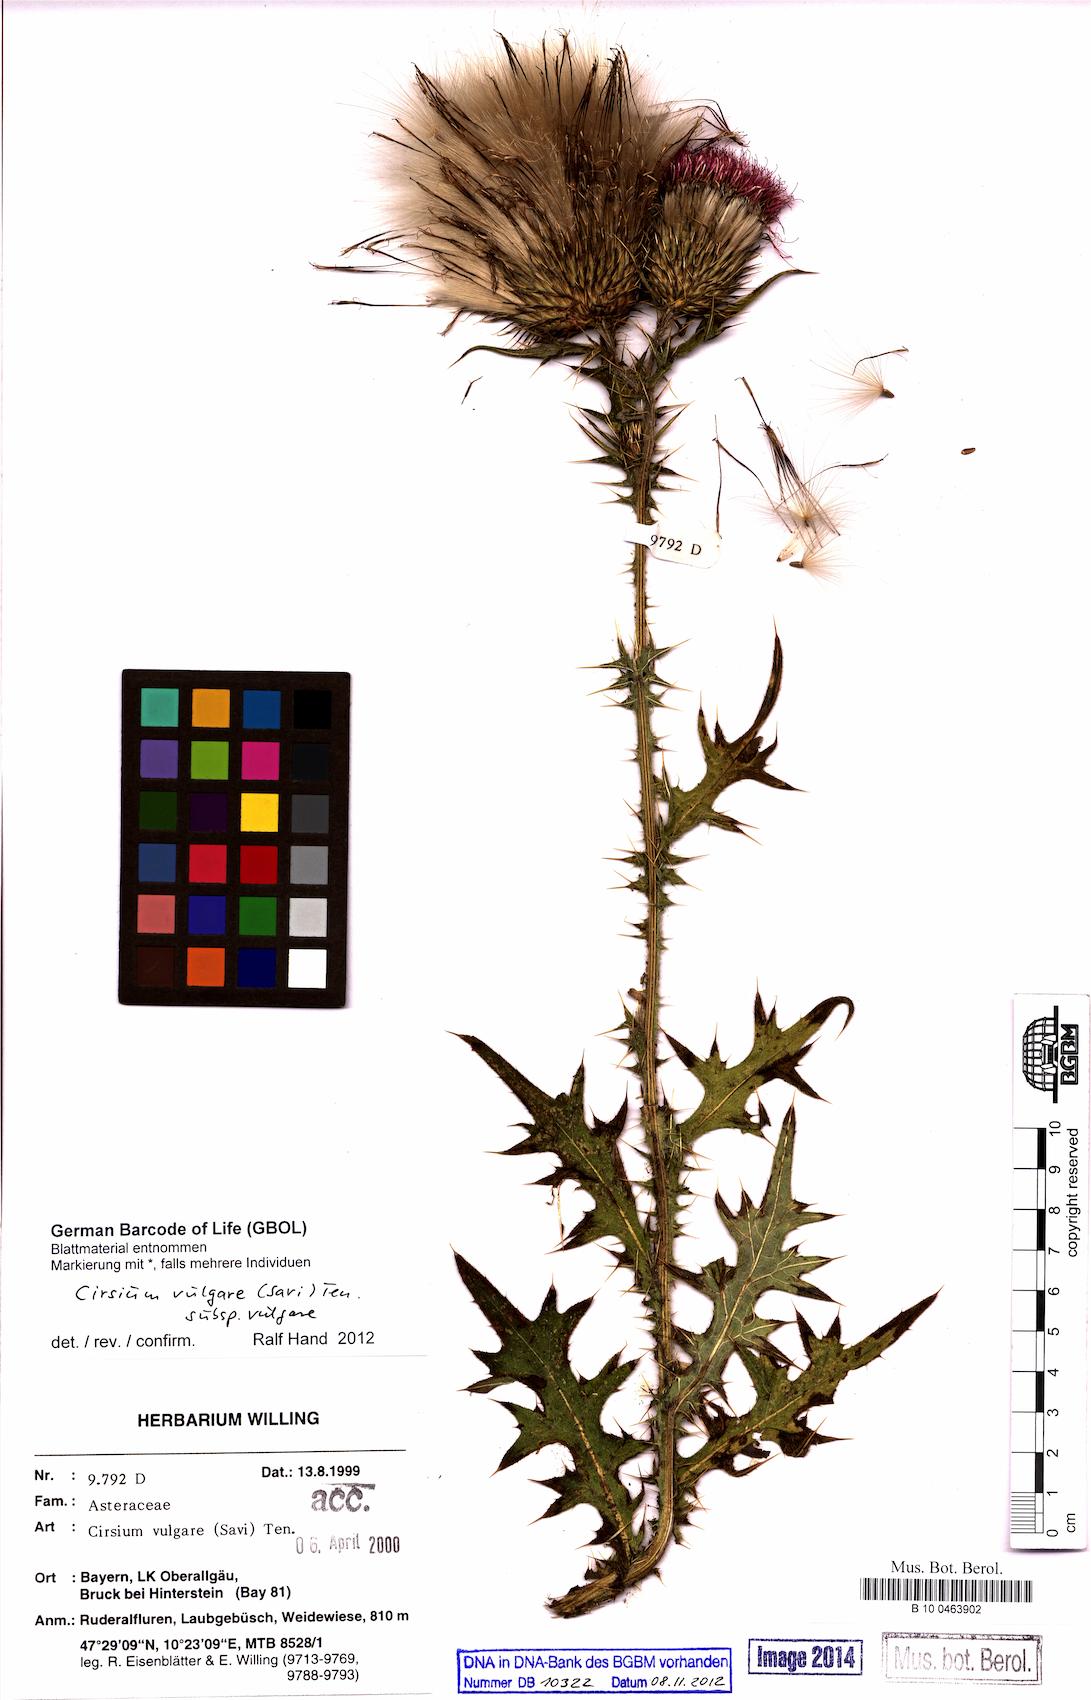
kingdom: Plantae
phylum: Tracheophyta
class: Magnoliopsida
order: Asterales
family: Asteraceae
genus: Cirsium
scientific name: Cirsium vulgare
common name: Bull thistle
